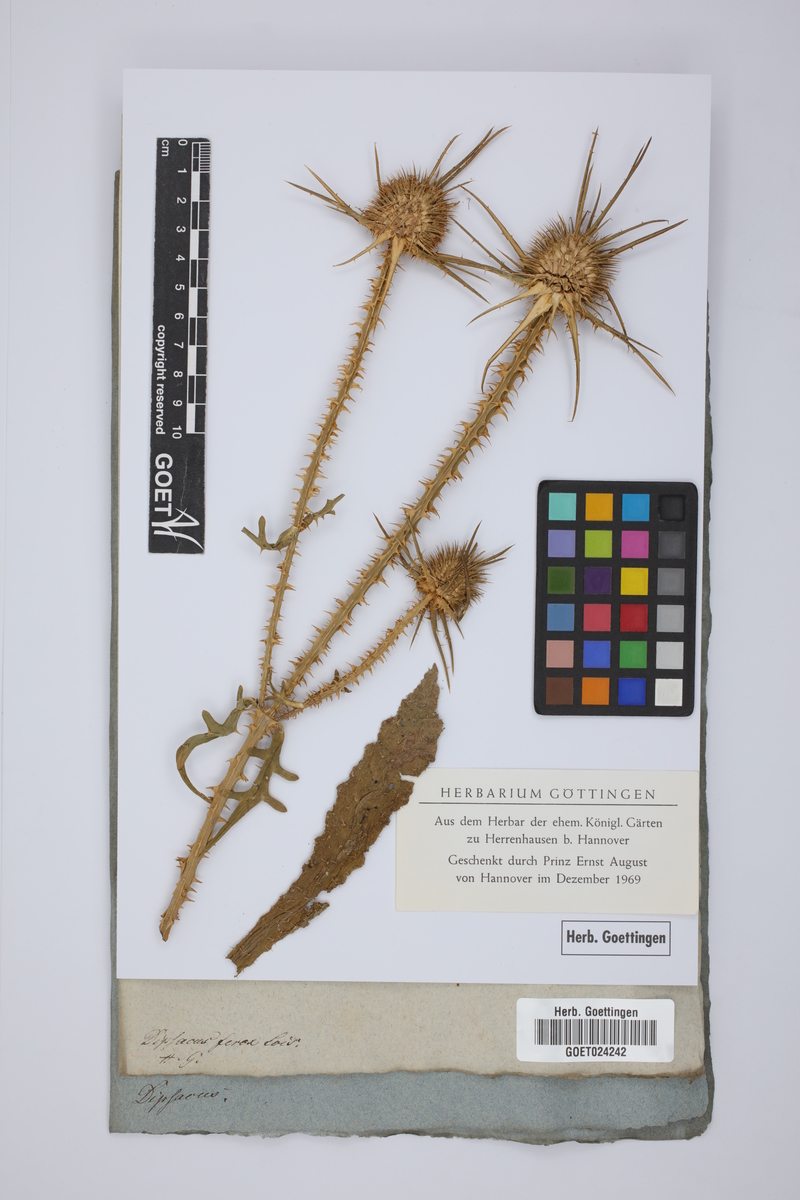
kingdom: Plantae
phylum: Tracheophyta
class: Magnoliopsida
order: Dipsacales
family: Caprifoliaceae
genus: Dipsacus
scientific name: Dipsacus ferox
